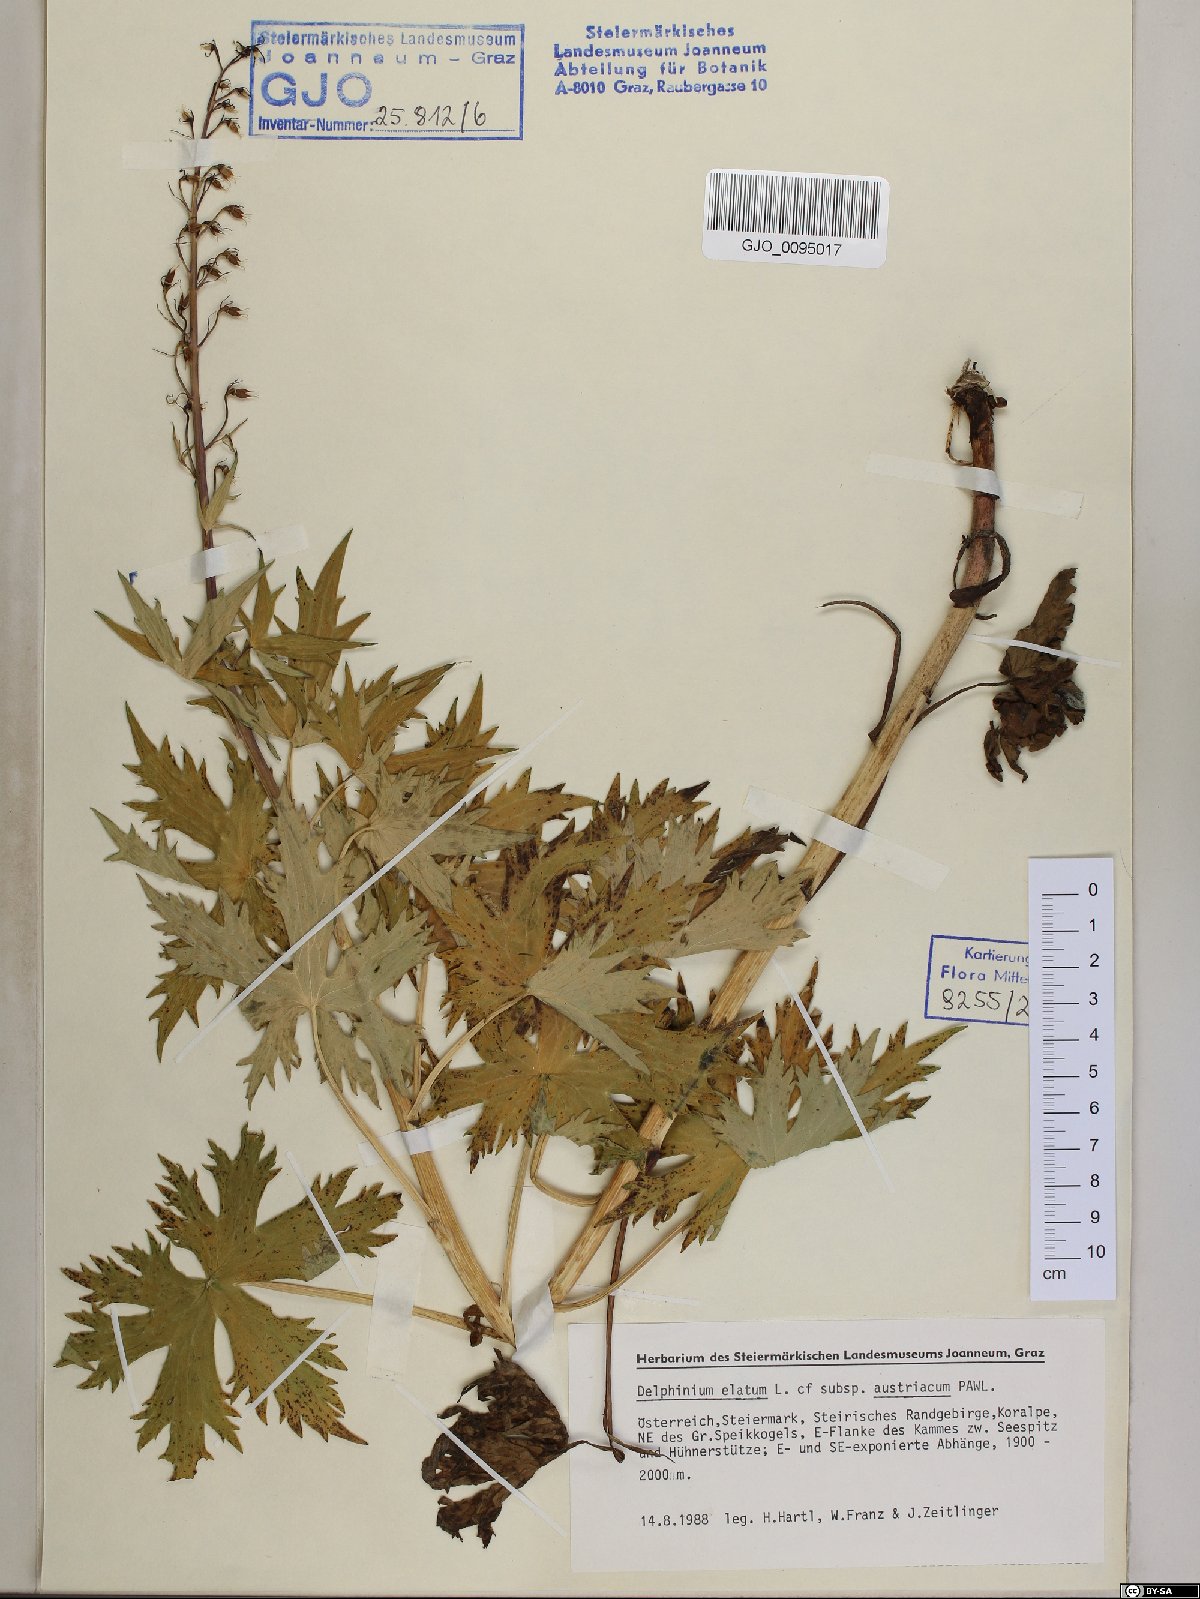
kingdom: Plantae
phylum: Tracheophyta
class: Magnoliopsida
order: Ranunculales
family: Ranunculaceae
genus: Delphinium
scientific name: Delphinium austriacum
